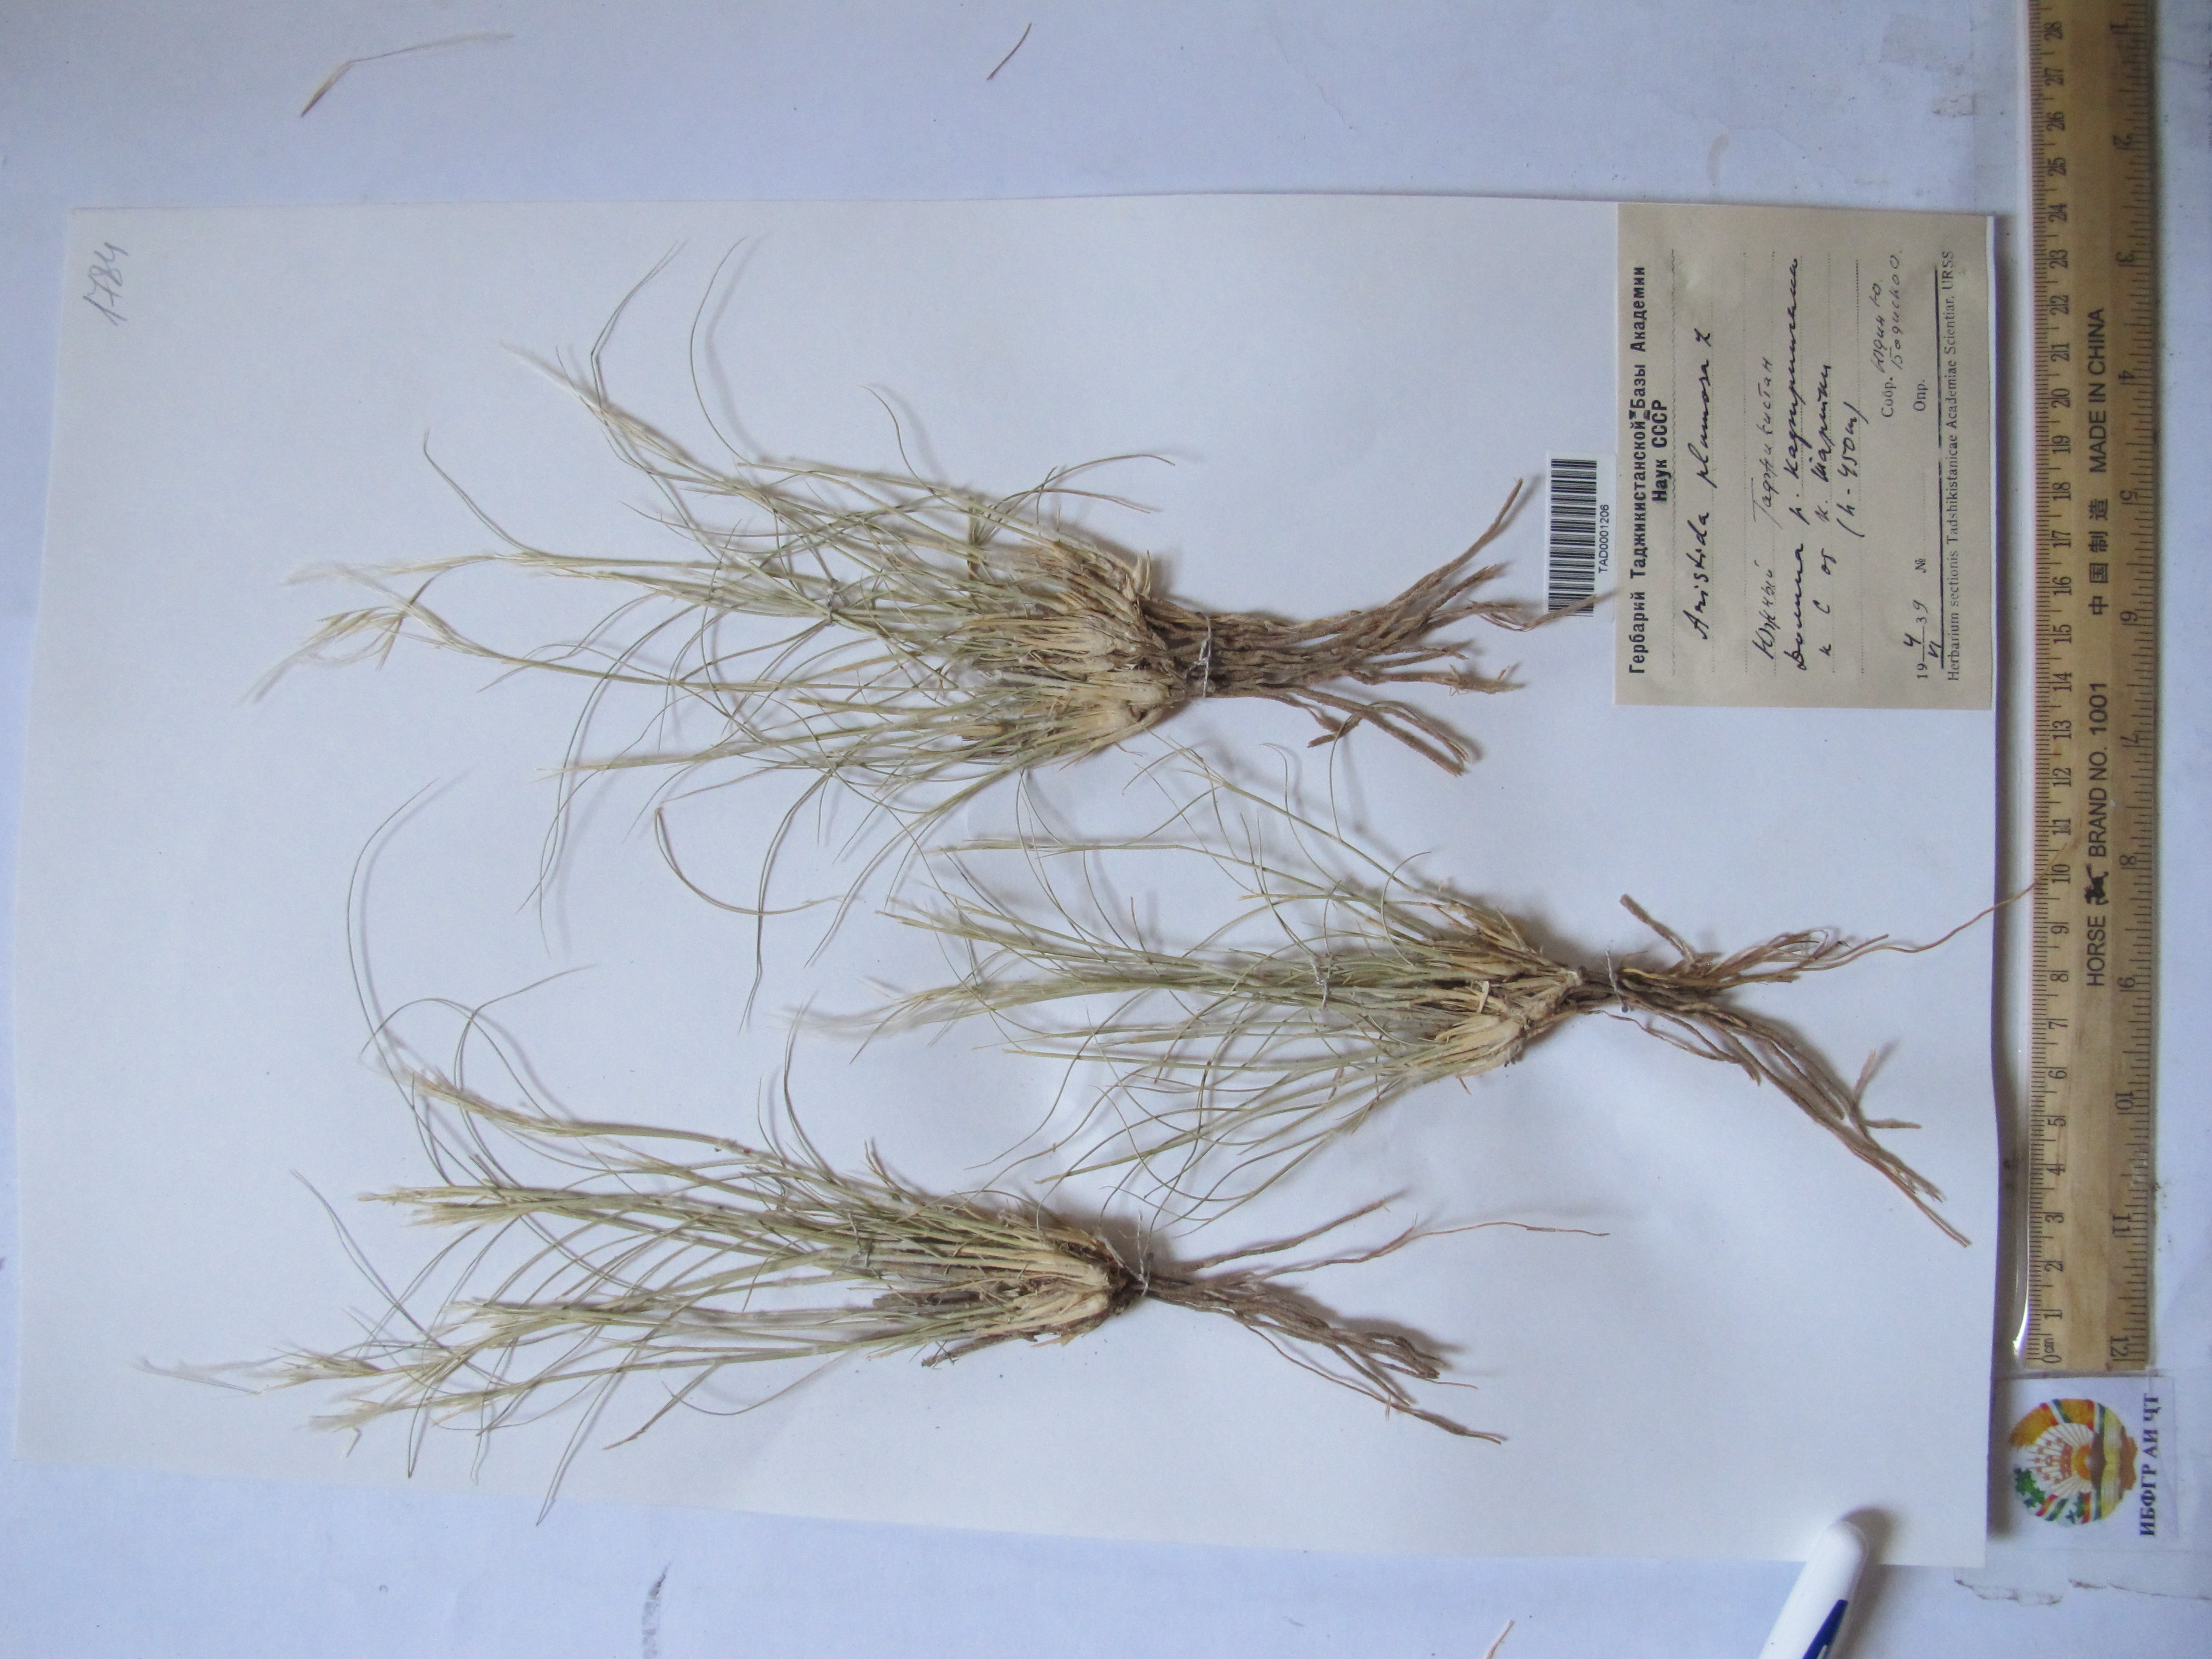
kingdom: Plantae
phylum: Tracheophyta
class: Liliopsida
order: Poales
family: Poaceae
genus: Stipagrostis
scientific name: Stipagrostis plumosa
